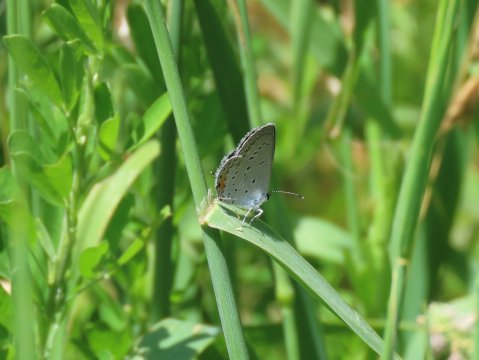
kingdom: Animalia
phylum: Arthropoda
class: Insecta
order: Lepidoptera
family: Lycaenidae
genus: Elkalyce
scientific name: Elkalyce comyntas
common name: Eastern Tailed-Blue
